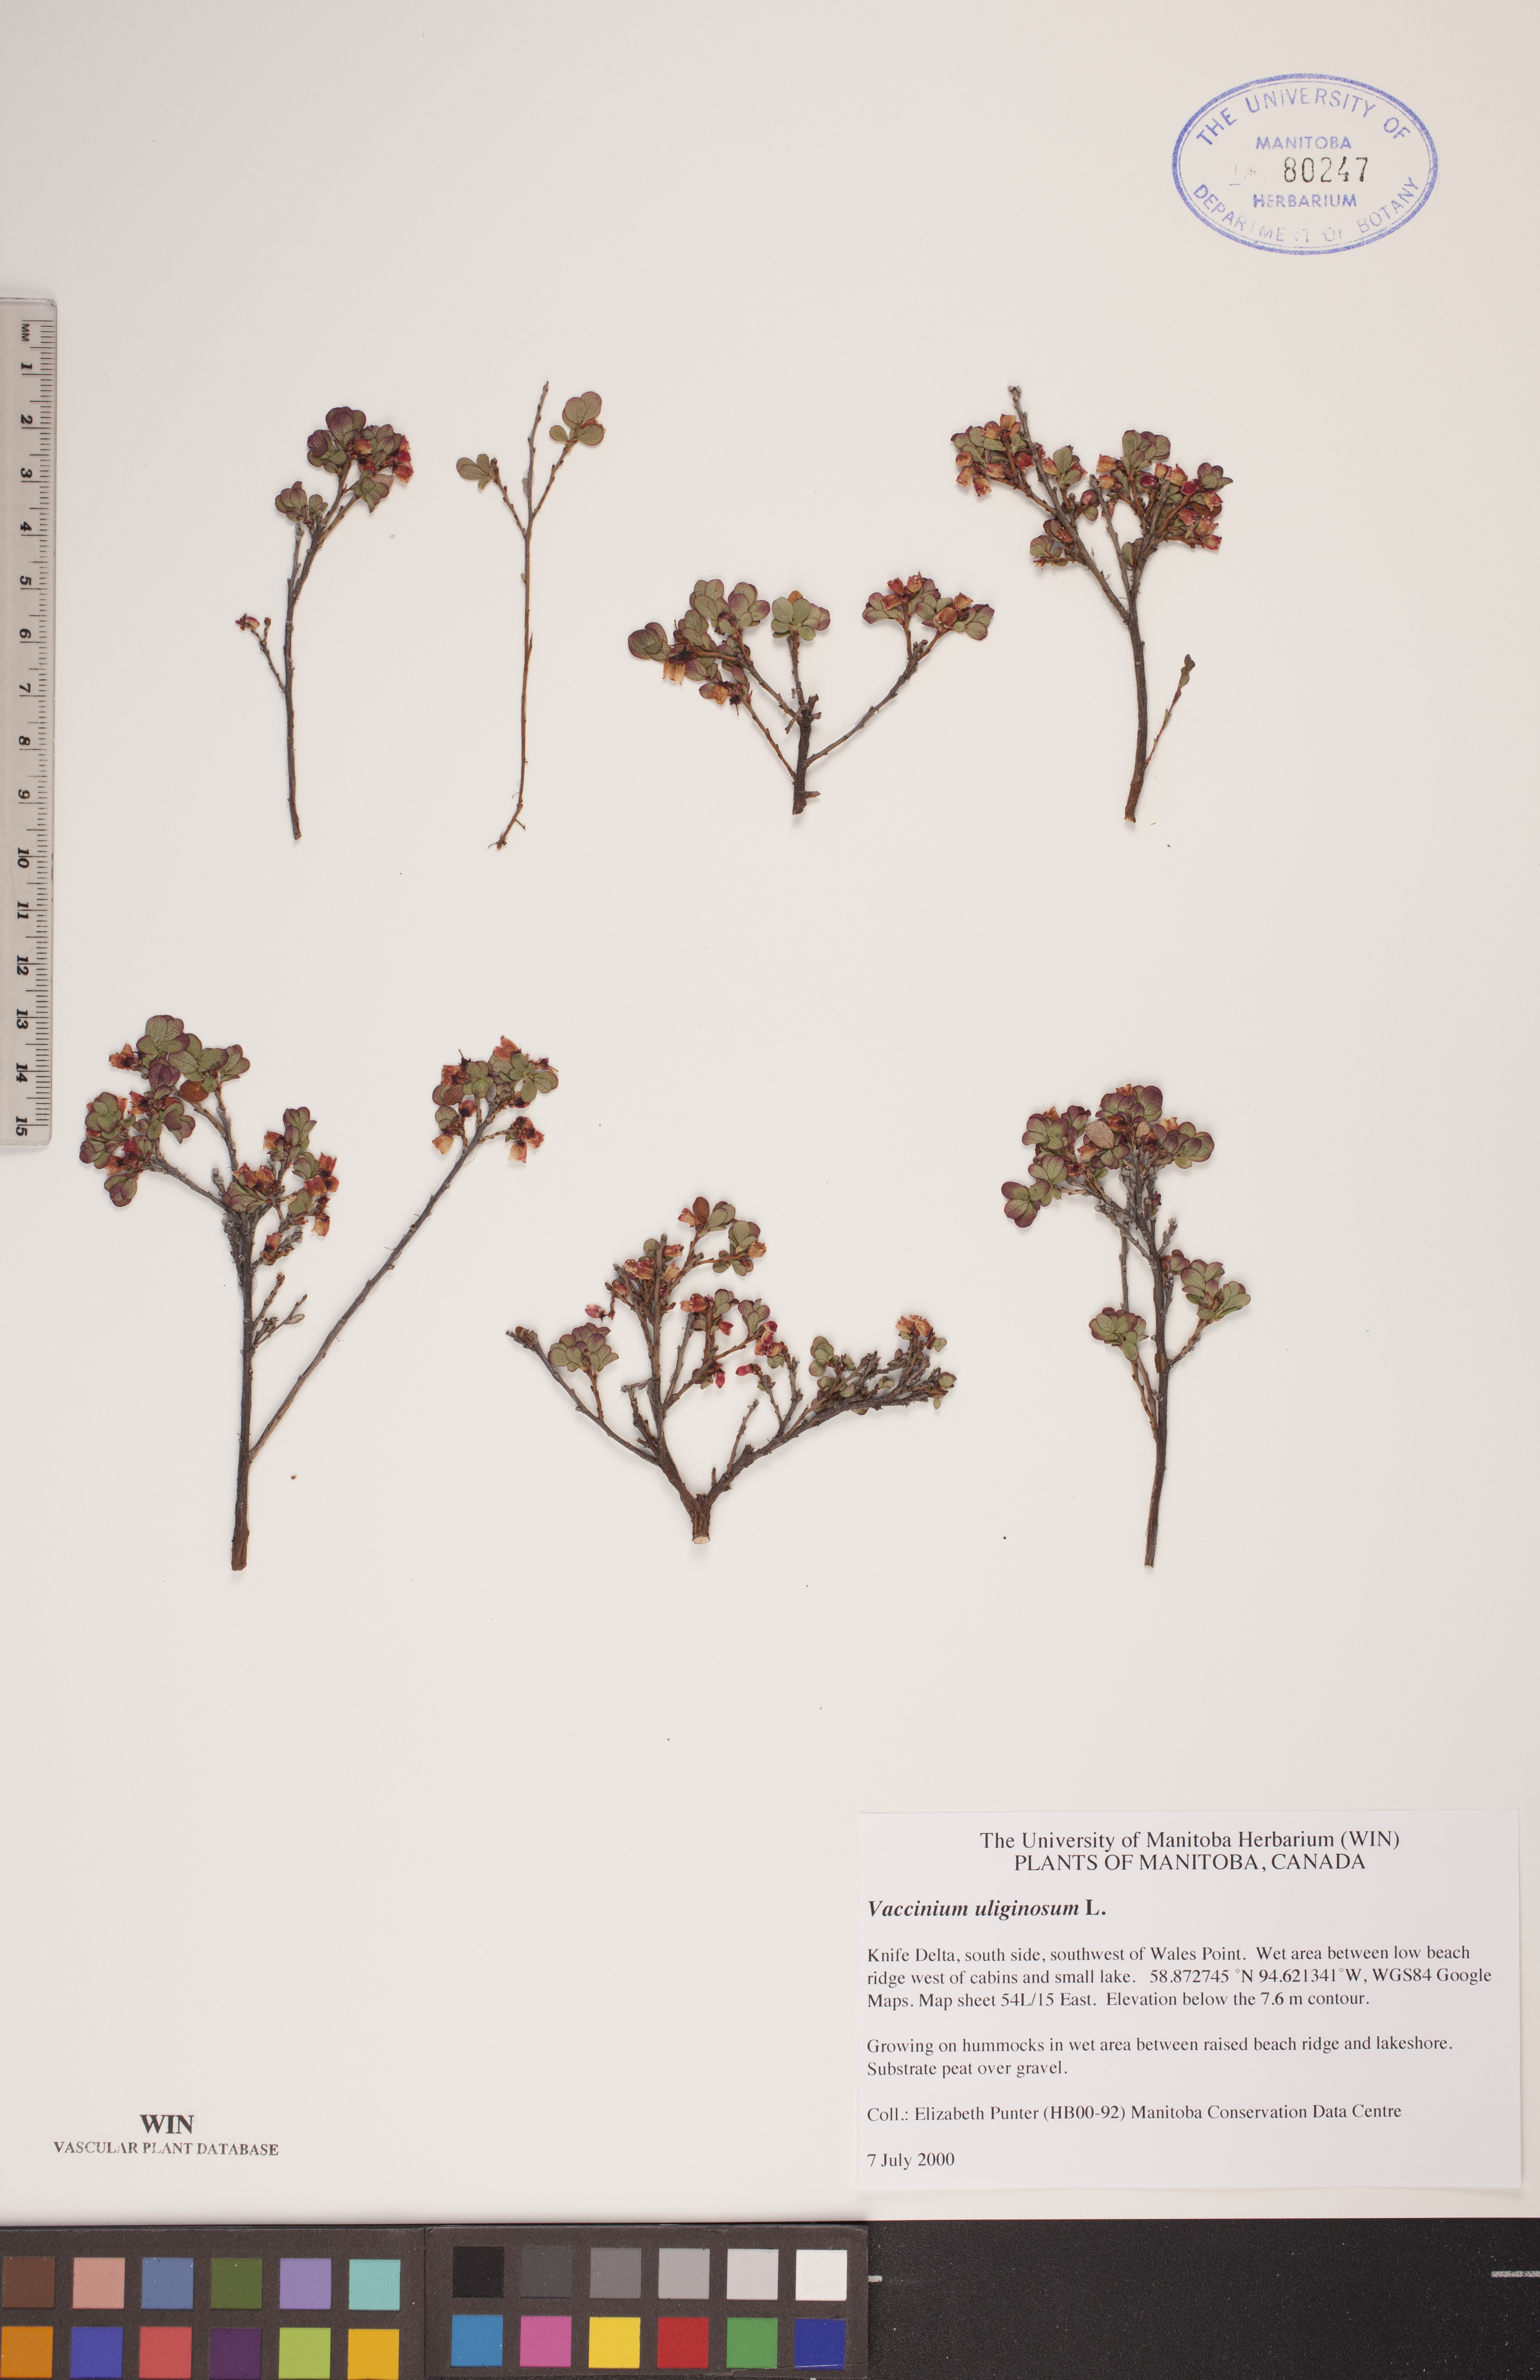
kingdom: Plantae
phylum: Tracheophyta
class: Magnoliopsida
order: Ericales
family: Ericaceae
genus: Vaccinium
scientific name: Vaccinium uliginosum
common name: Bog bilberry
